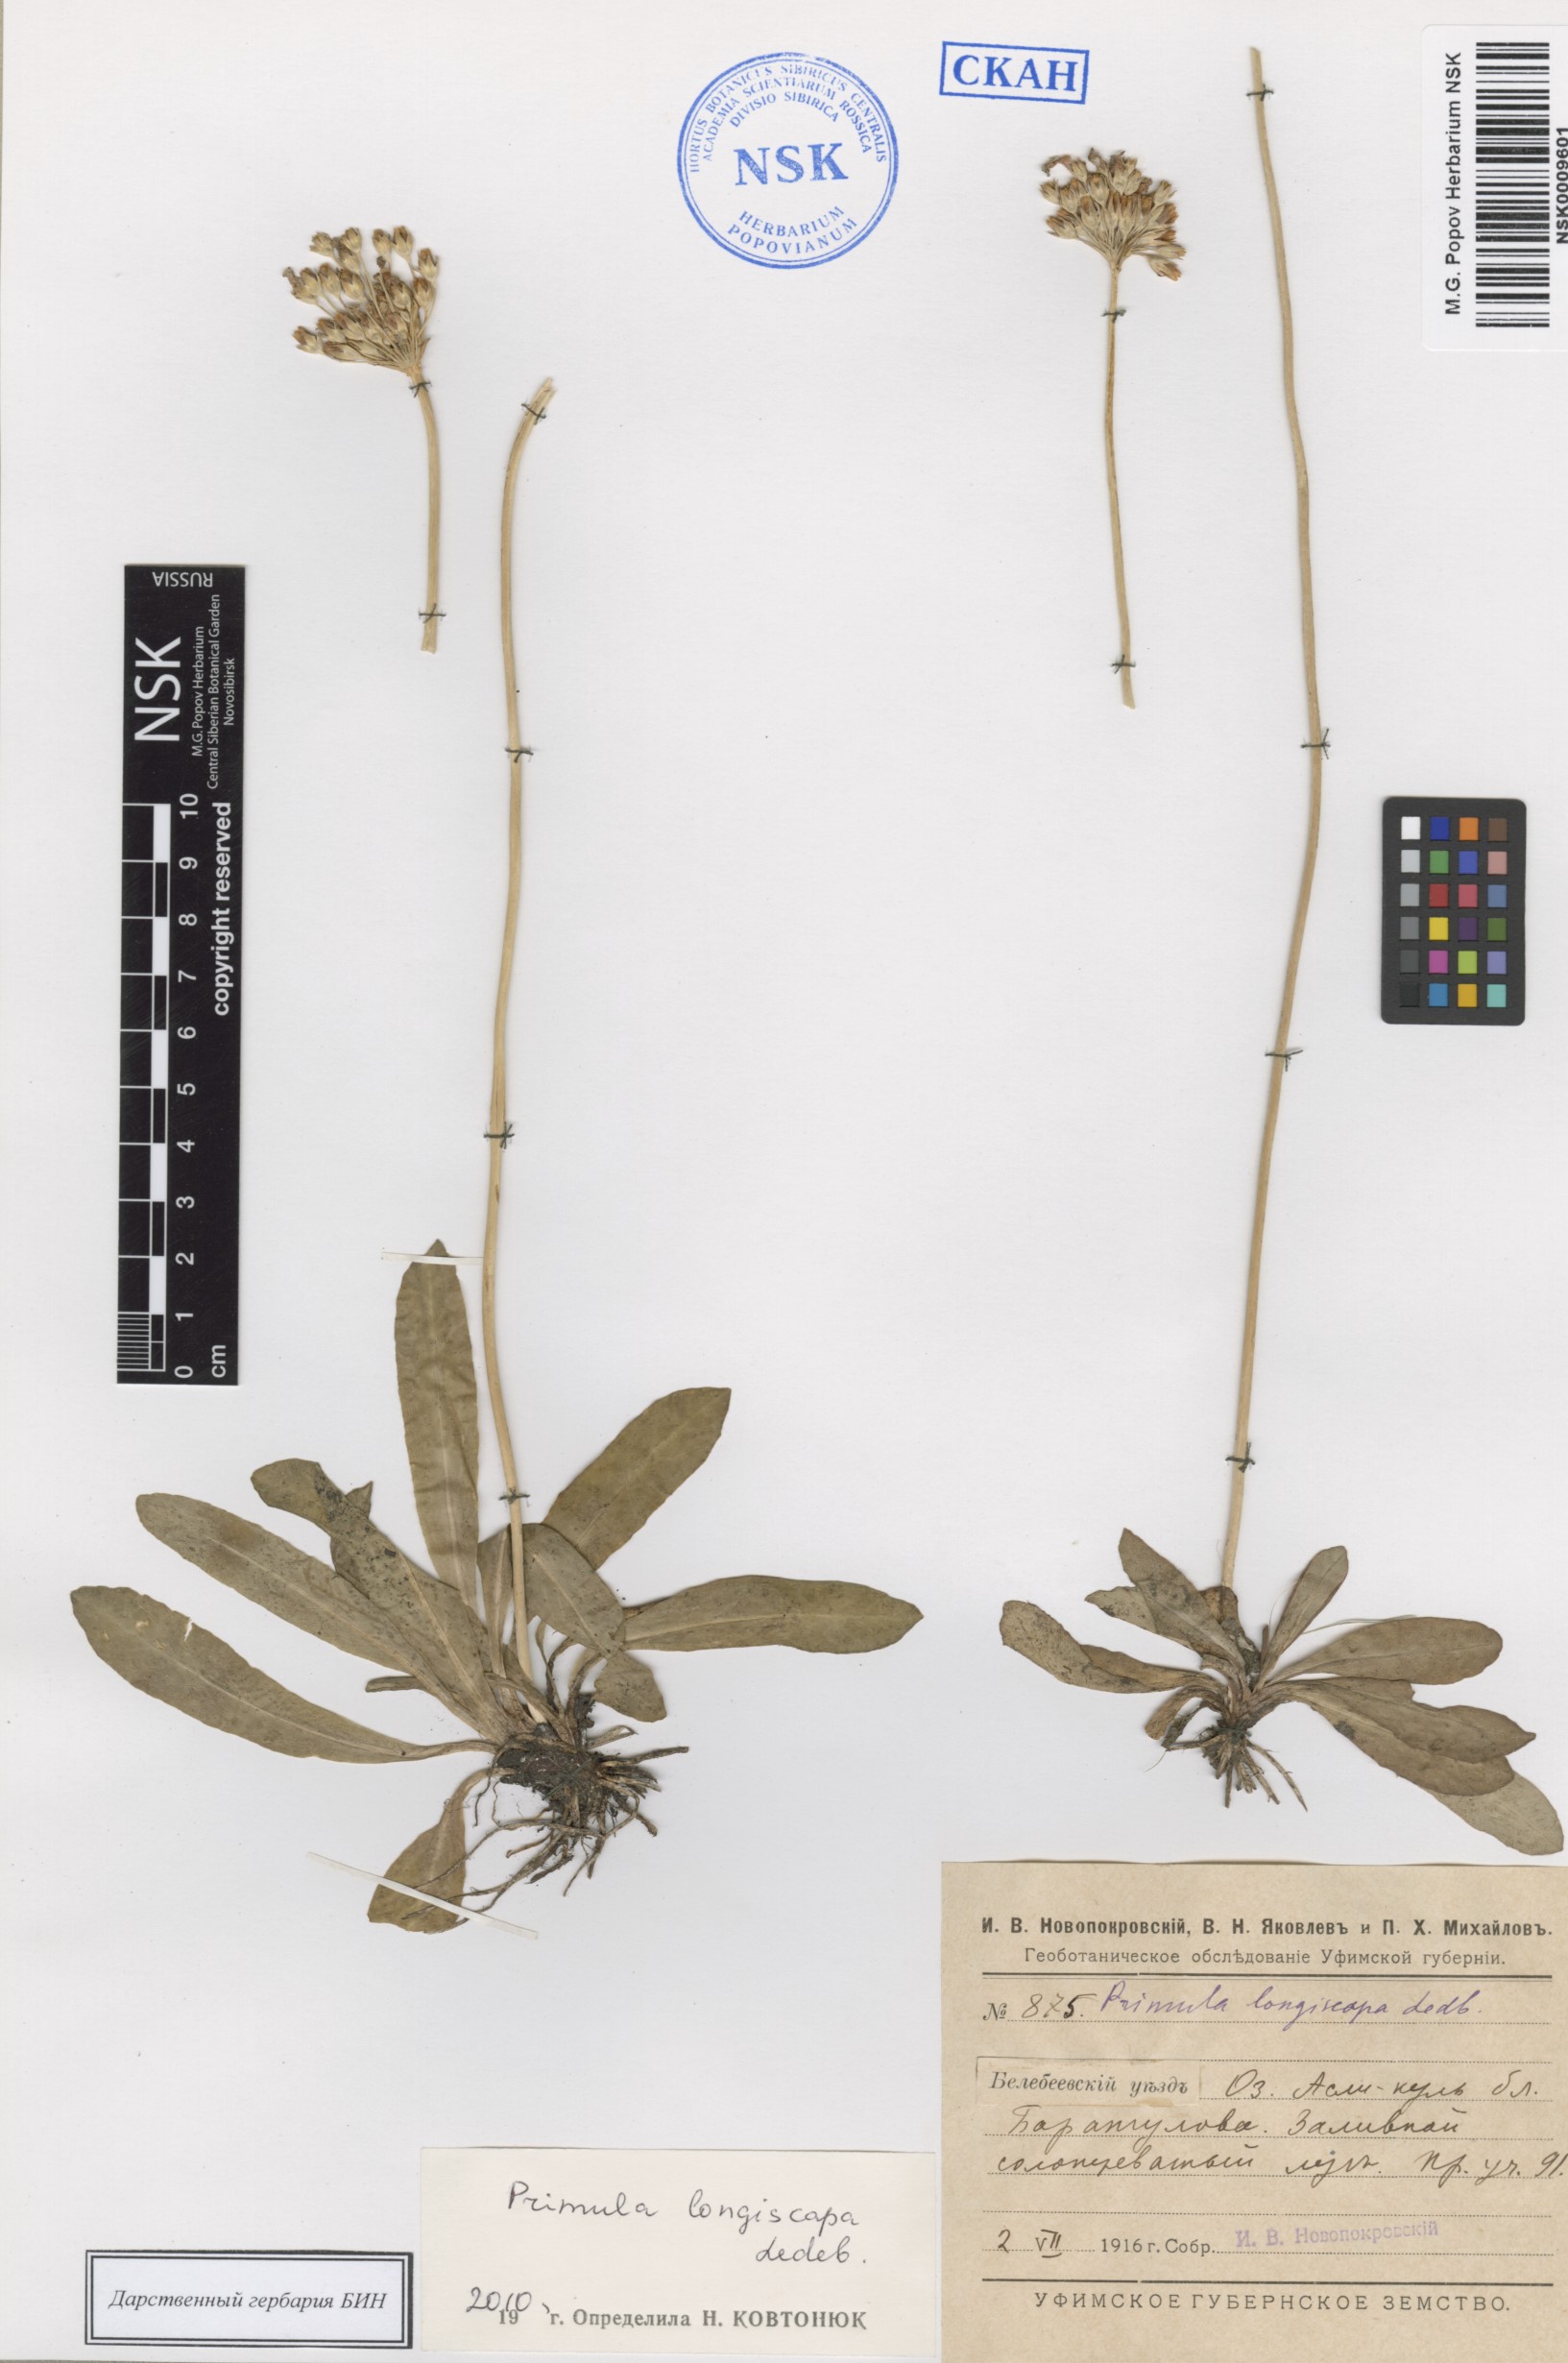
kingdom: Plantae
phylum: Tracheophyta
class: Magnoliopsida
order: Ericales
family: Primulaceae
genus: Primula
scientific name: Primula longiscapa
